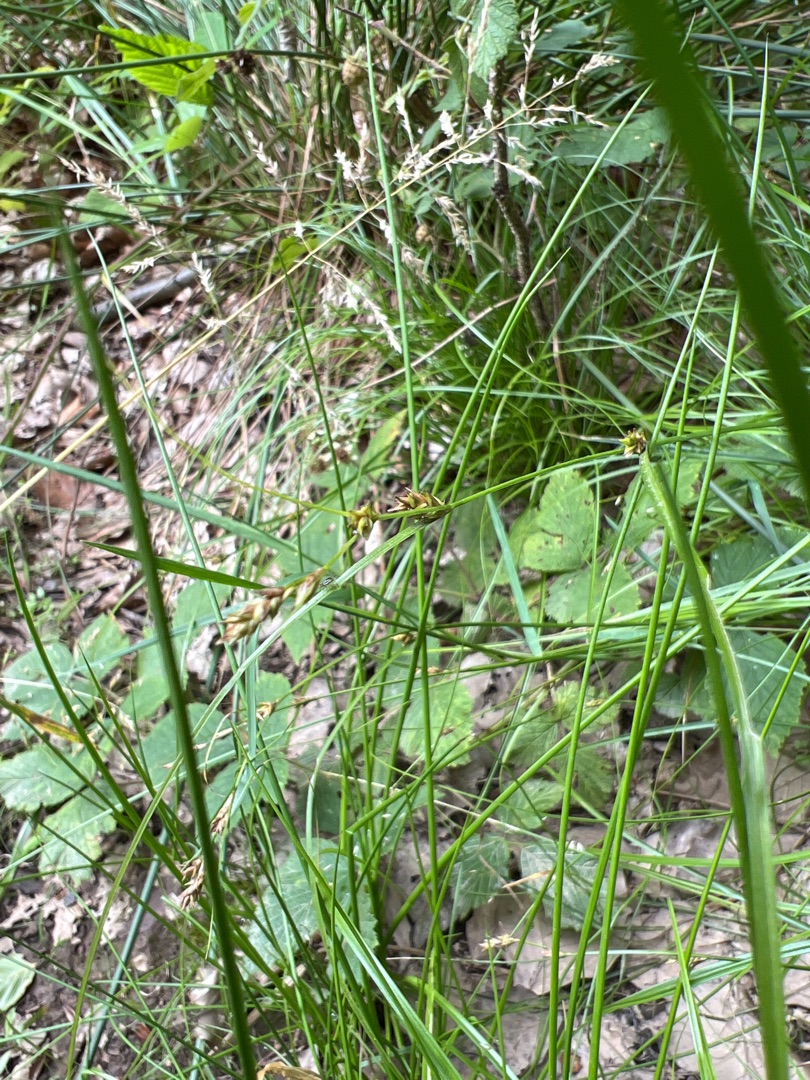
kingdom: Plantae
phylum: Tracheophyta
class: Liliopsida
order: Poales
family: Cyperaceae
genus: Carex
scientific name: Carex remota
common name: Akselblomstret star
